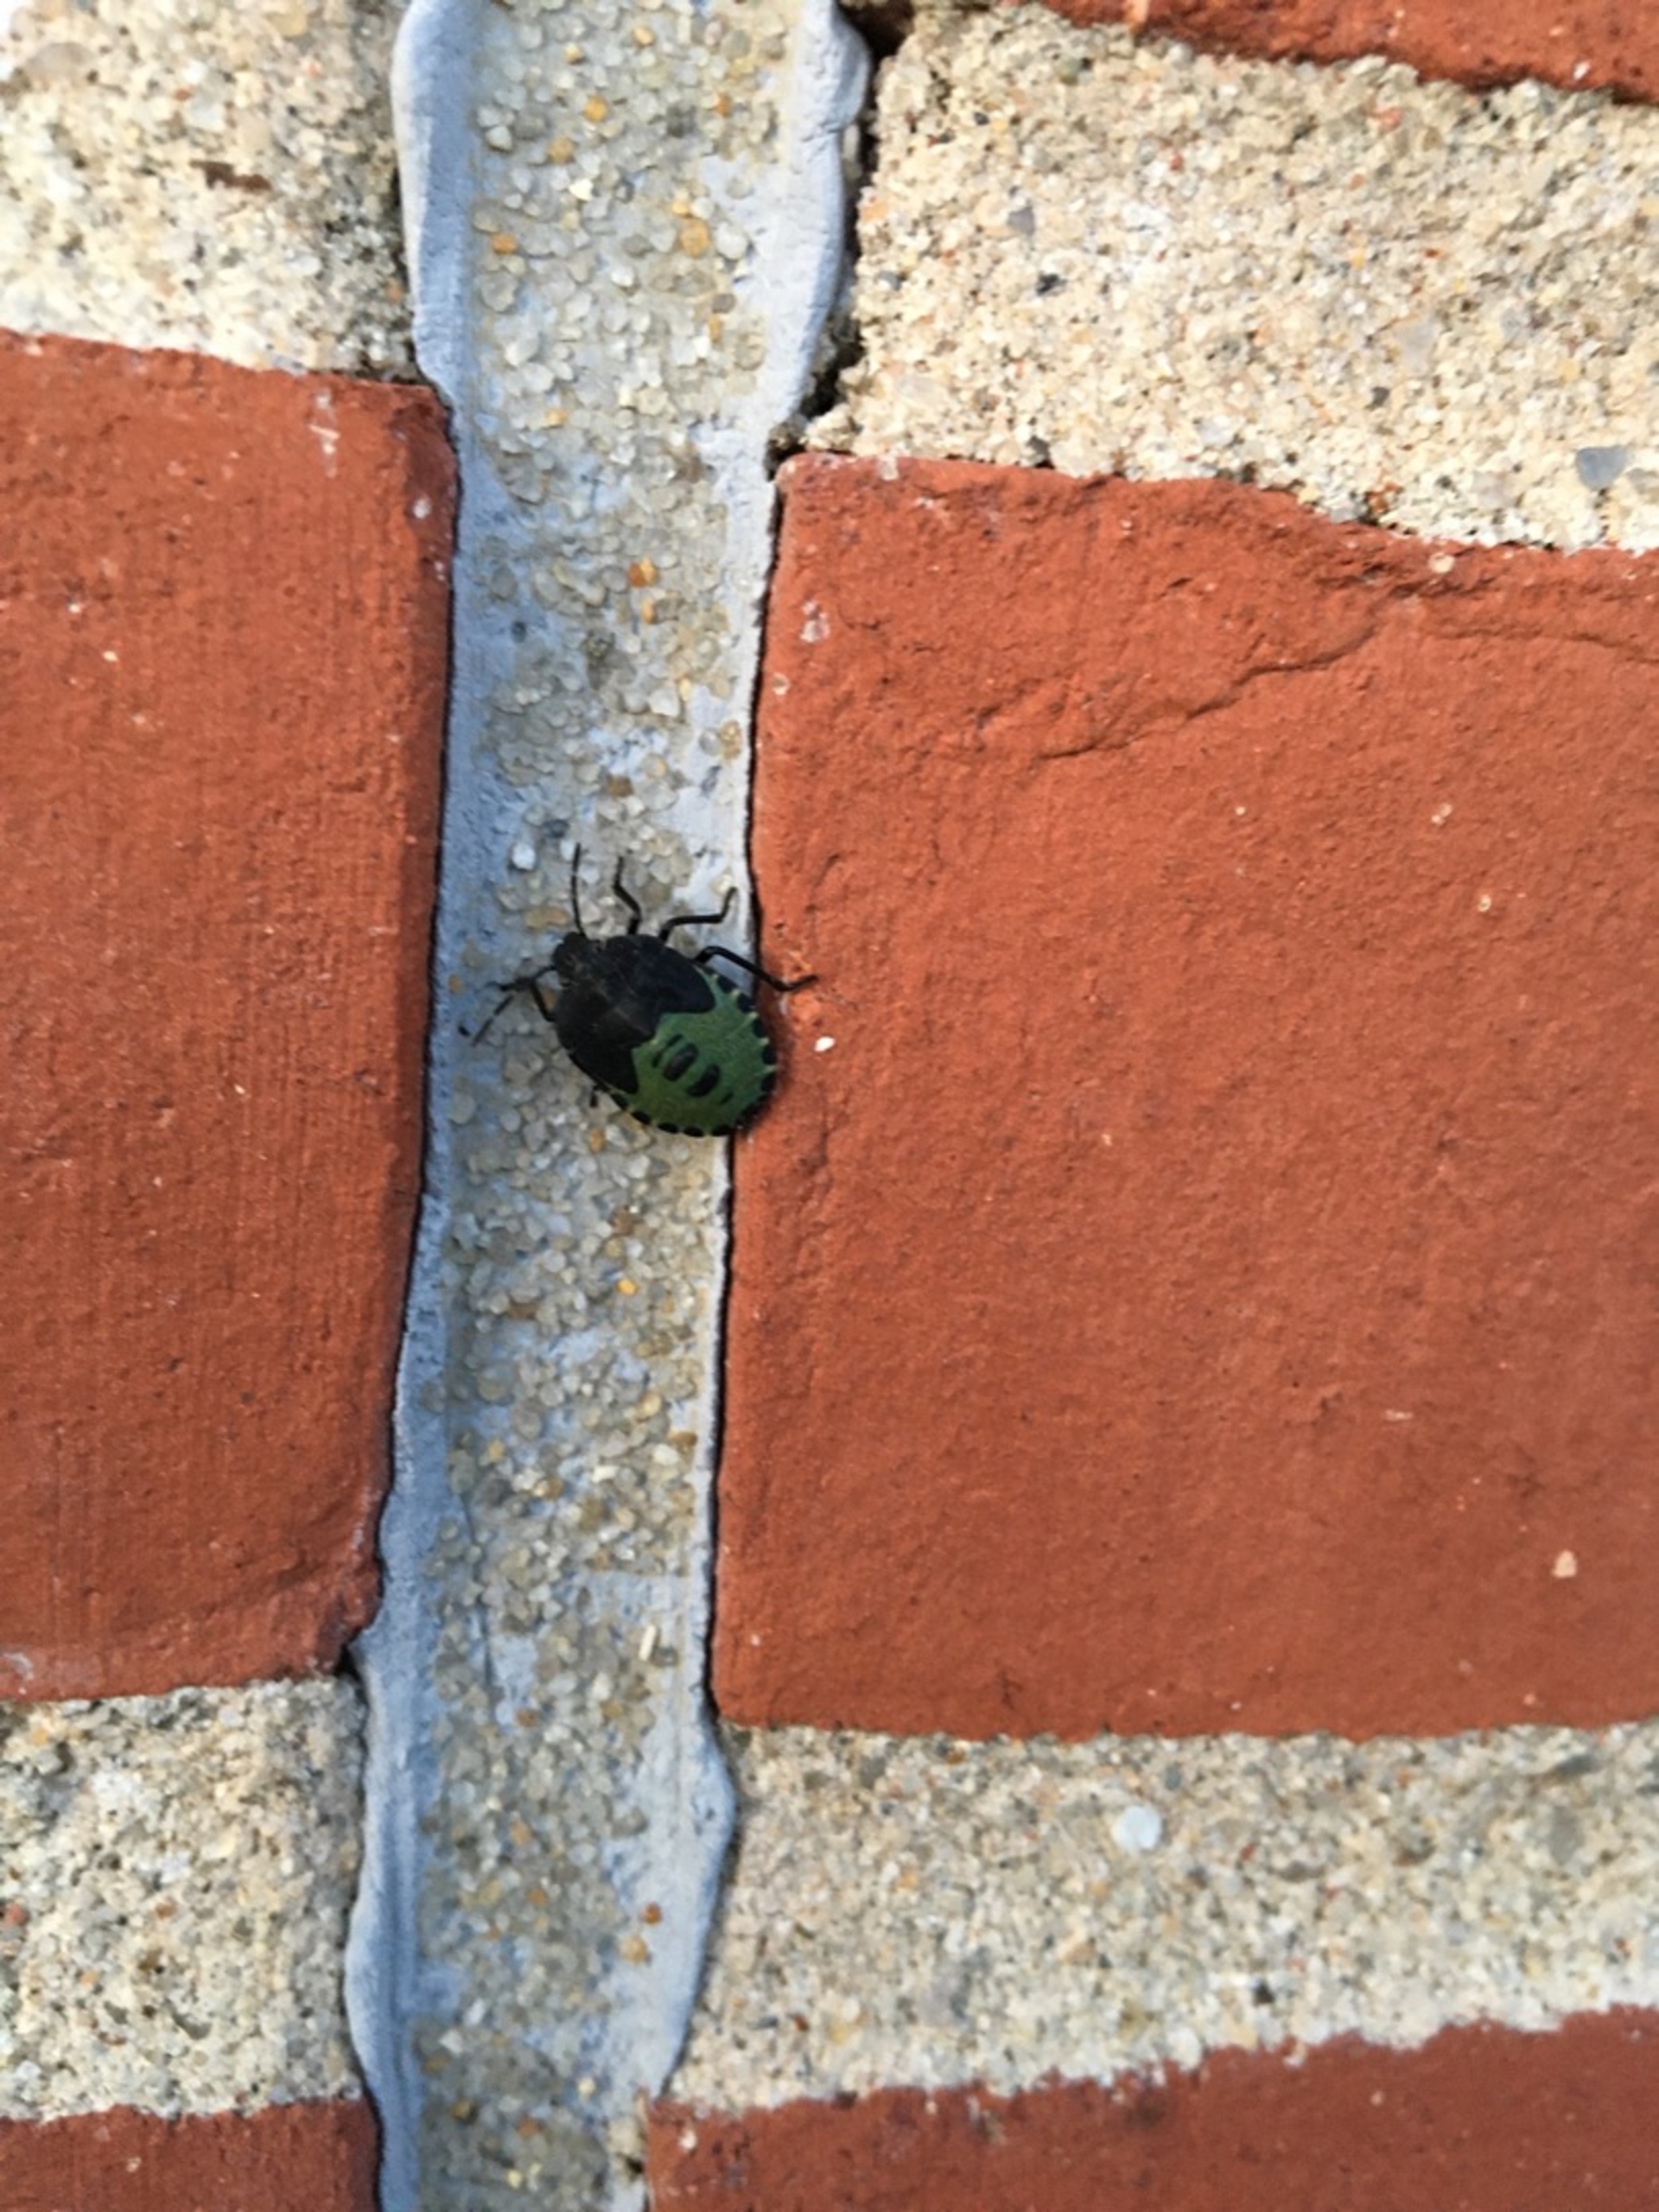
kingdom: Animalia
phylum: Arthropoda
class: Insecta
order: Hemiptera
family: Pentatomidae
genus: Palomena
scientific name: Palomena prasina
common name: Grøn bredtæge
